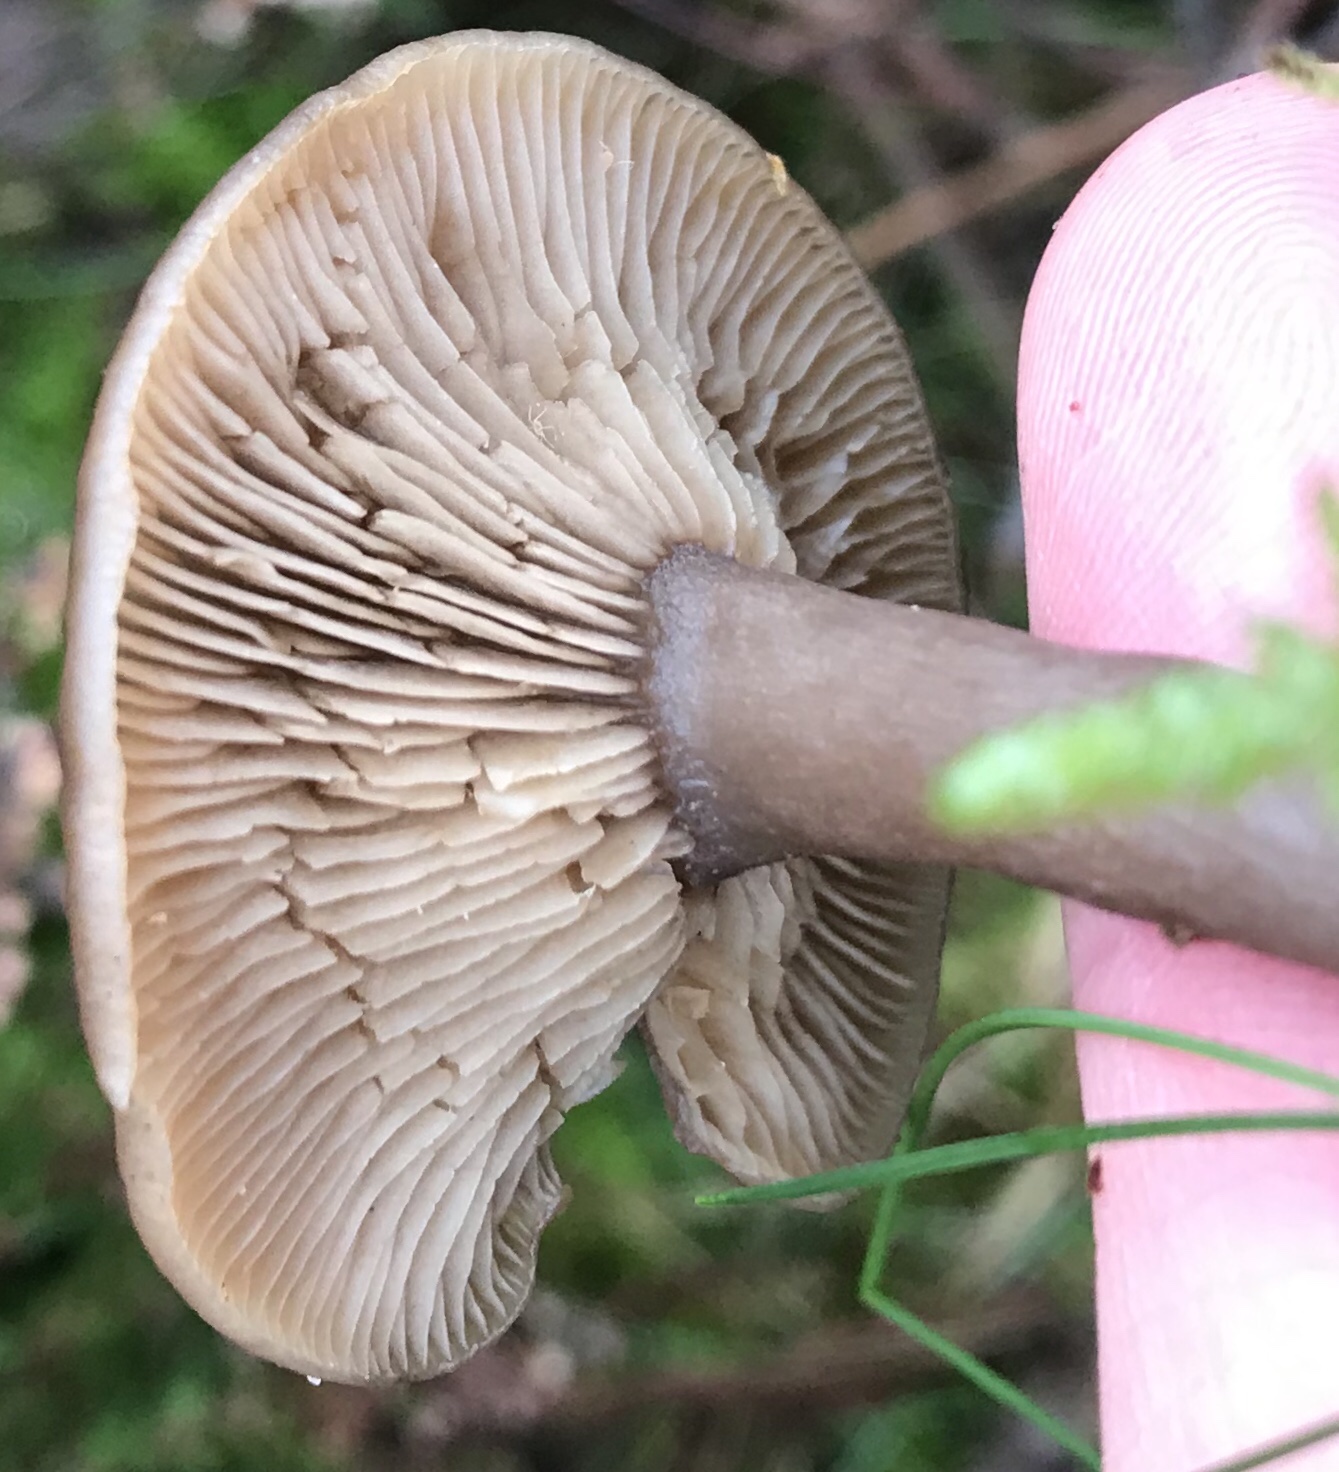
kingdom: Fungi
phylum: Basidiomycota
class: Agaricomycetes
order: Agaricales
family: Pseudoclitocybaceae
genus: Pseudoclitocybe
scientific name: Pseudoclitocybe cyathiformis
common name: almindelig bægertragthat
